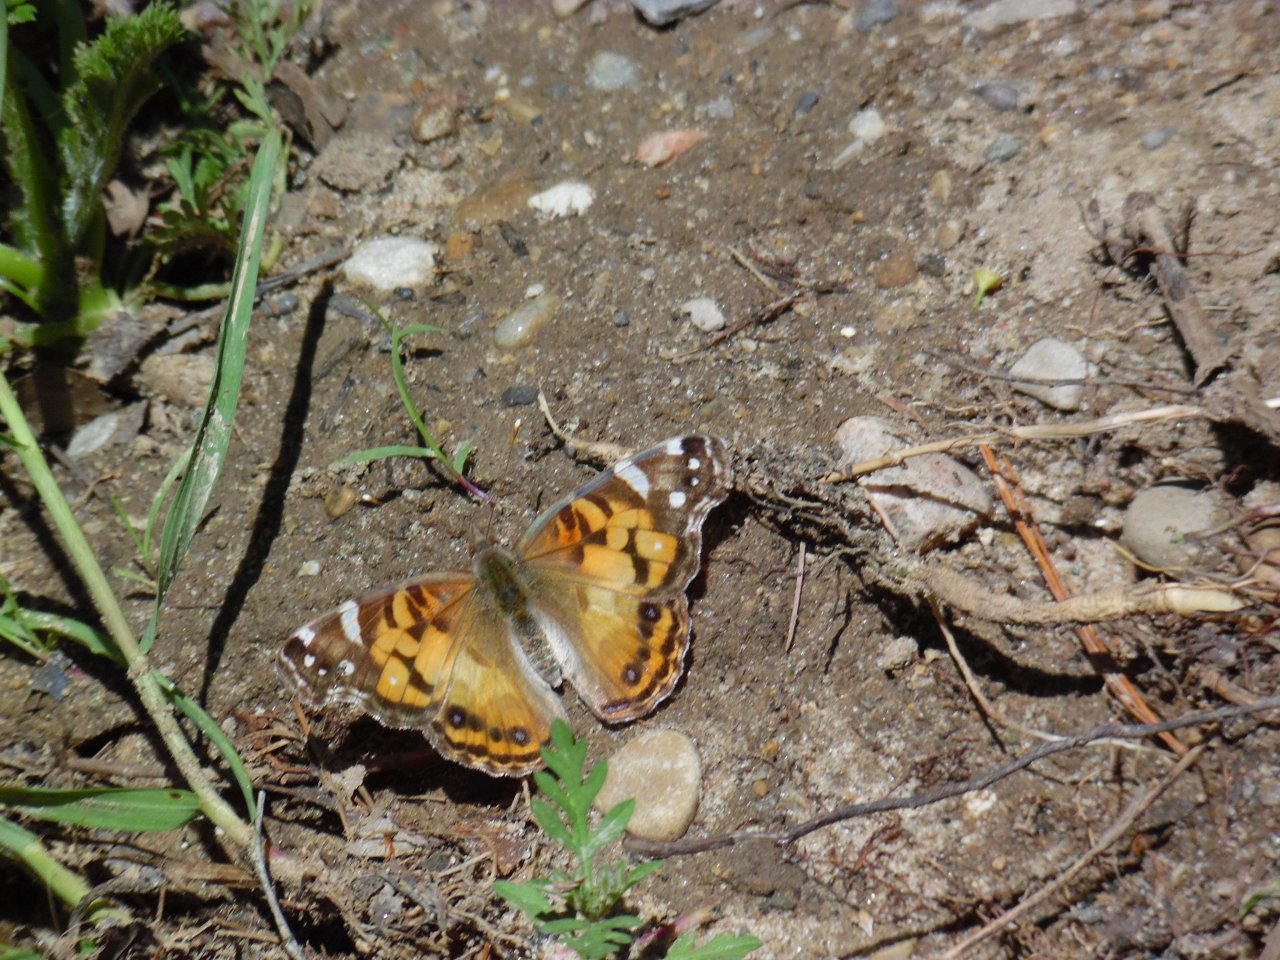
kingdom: Animalia
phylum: Arthropoda
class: Insecta
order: Lepidoptera
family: Nymphalidae
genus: Vanessa
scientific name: Vanessa virginiensis
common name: American Lady
